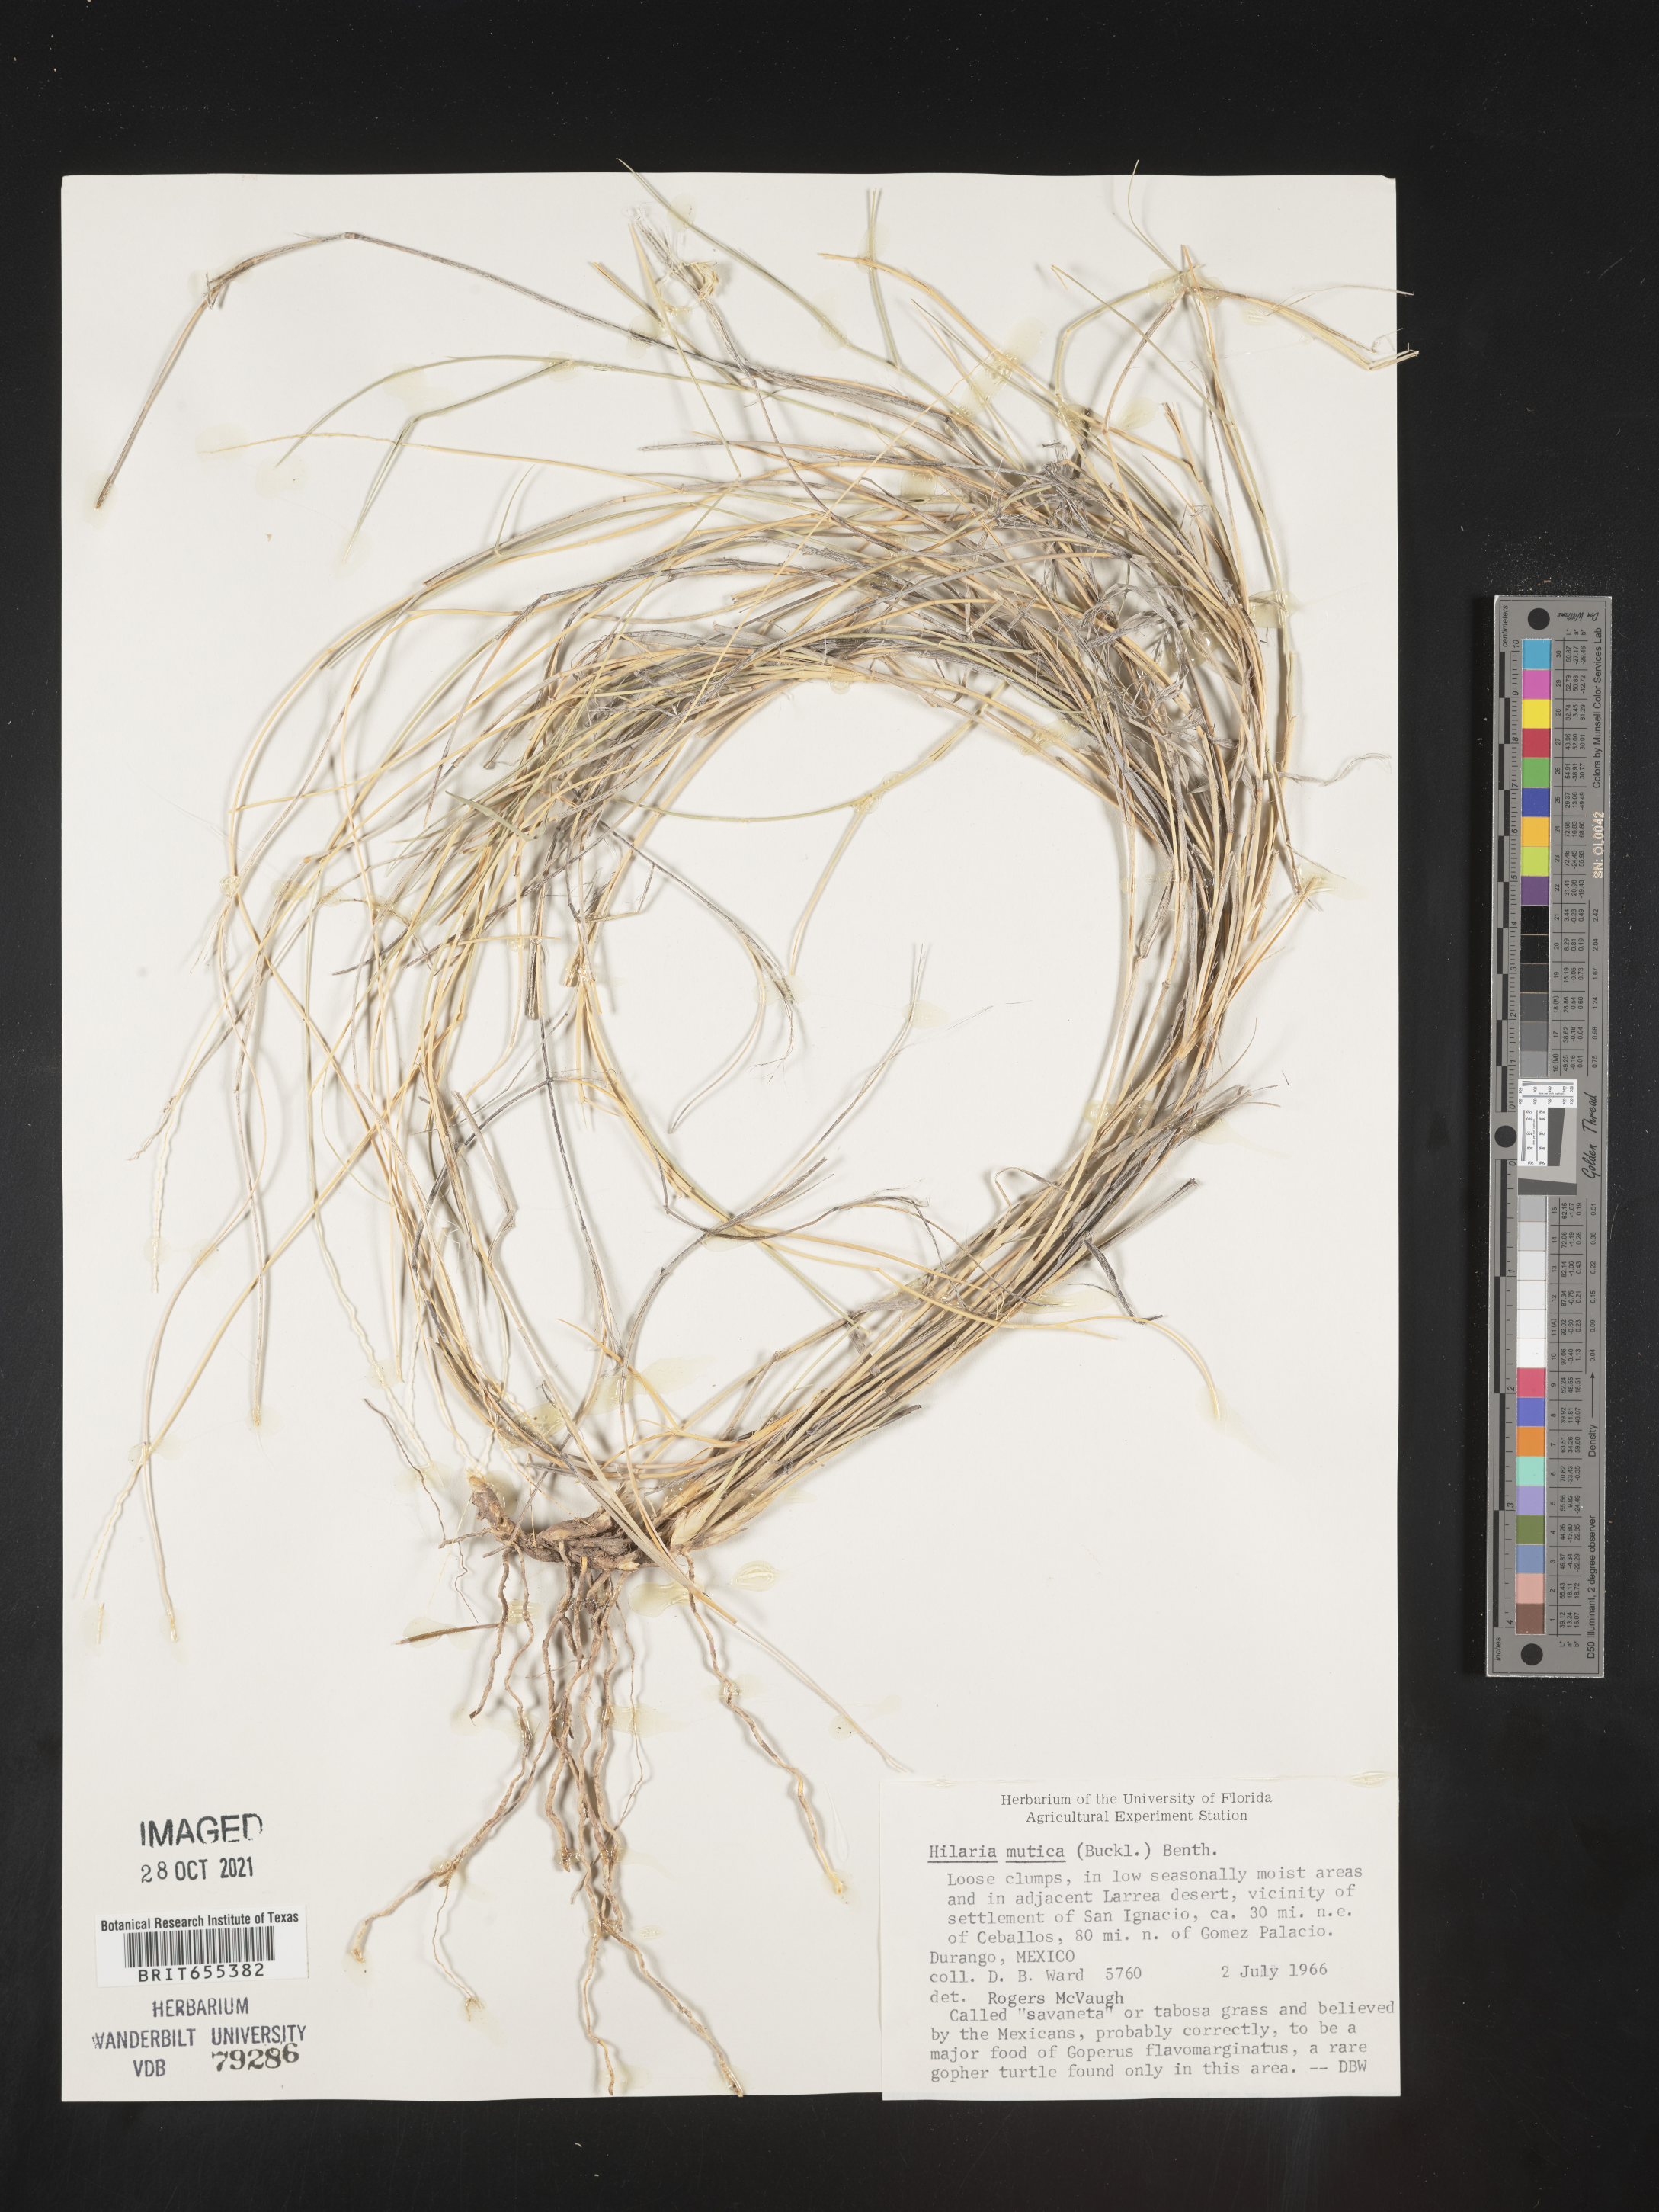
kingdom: Plantae
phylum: Tracheophyta
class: Liliopsida
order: Poales
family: Poaceae
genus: Hilaria
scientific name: Hilaria
